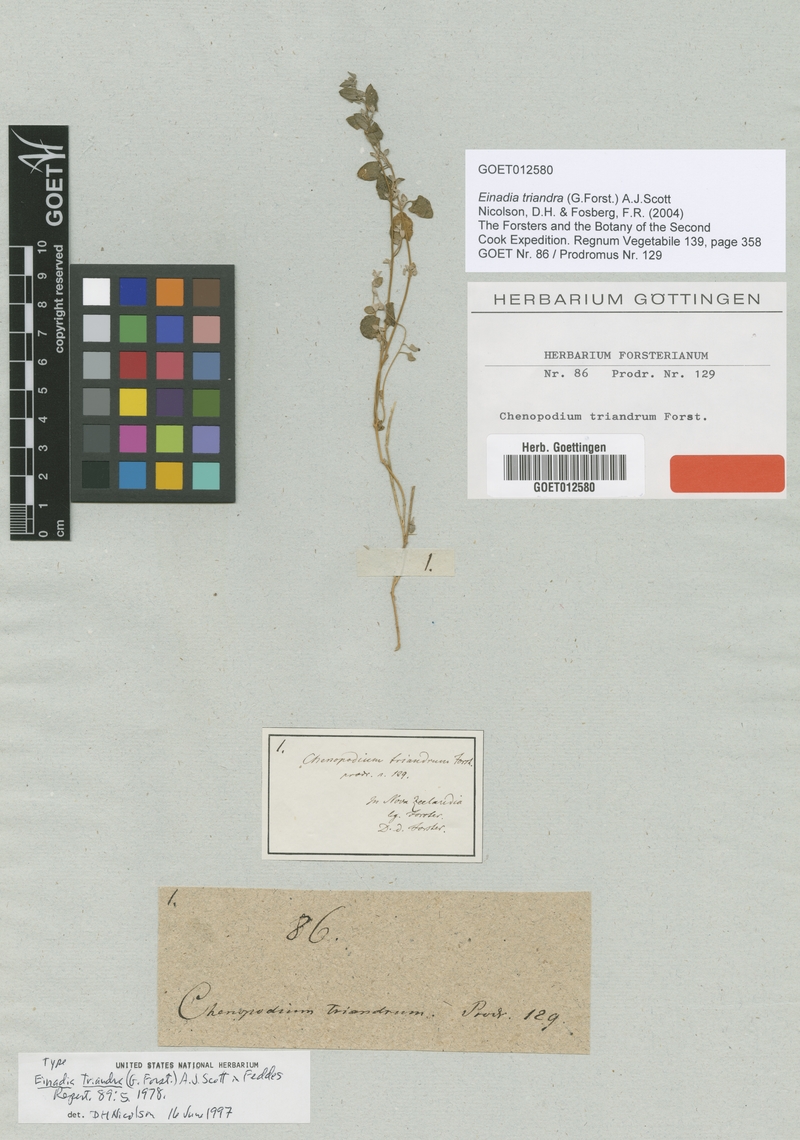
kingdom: Plantae
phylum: Tracheophyta
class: Magnoliopsida
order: Caryophyllales
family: Amaranthaceae
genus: Chenopodium
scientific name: Chenopodium triandrum
